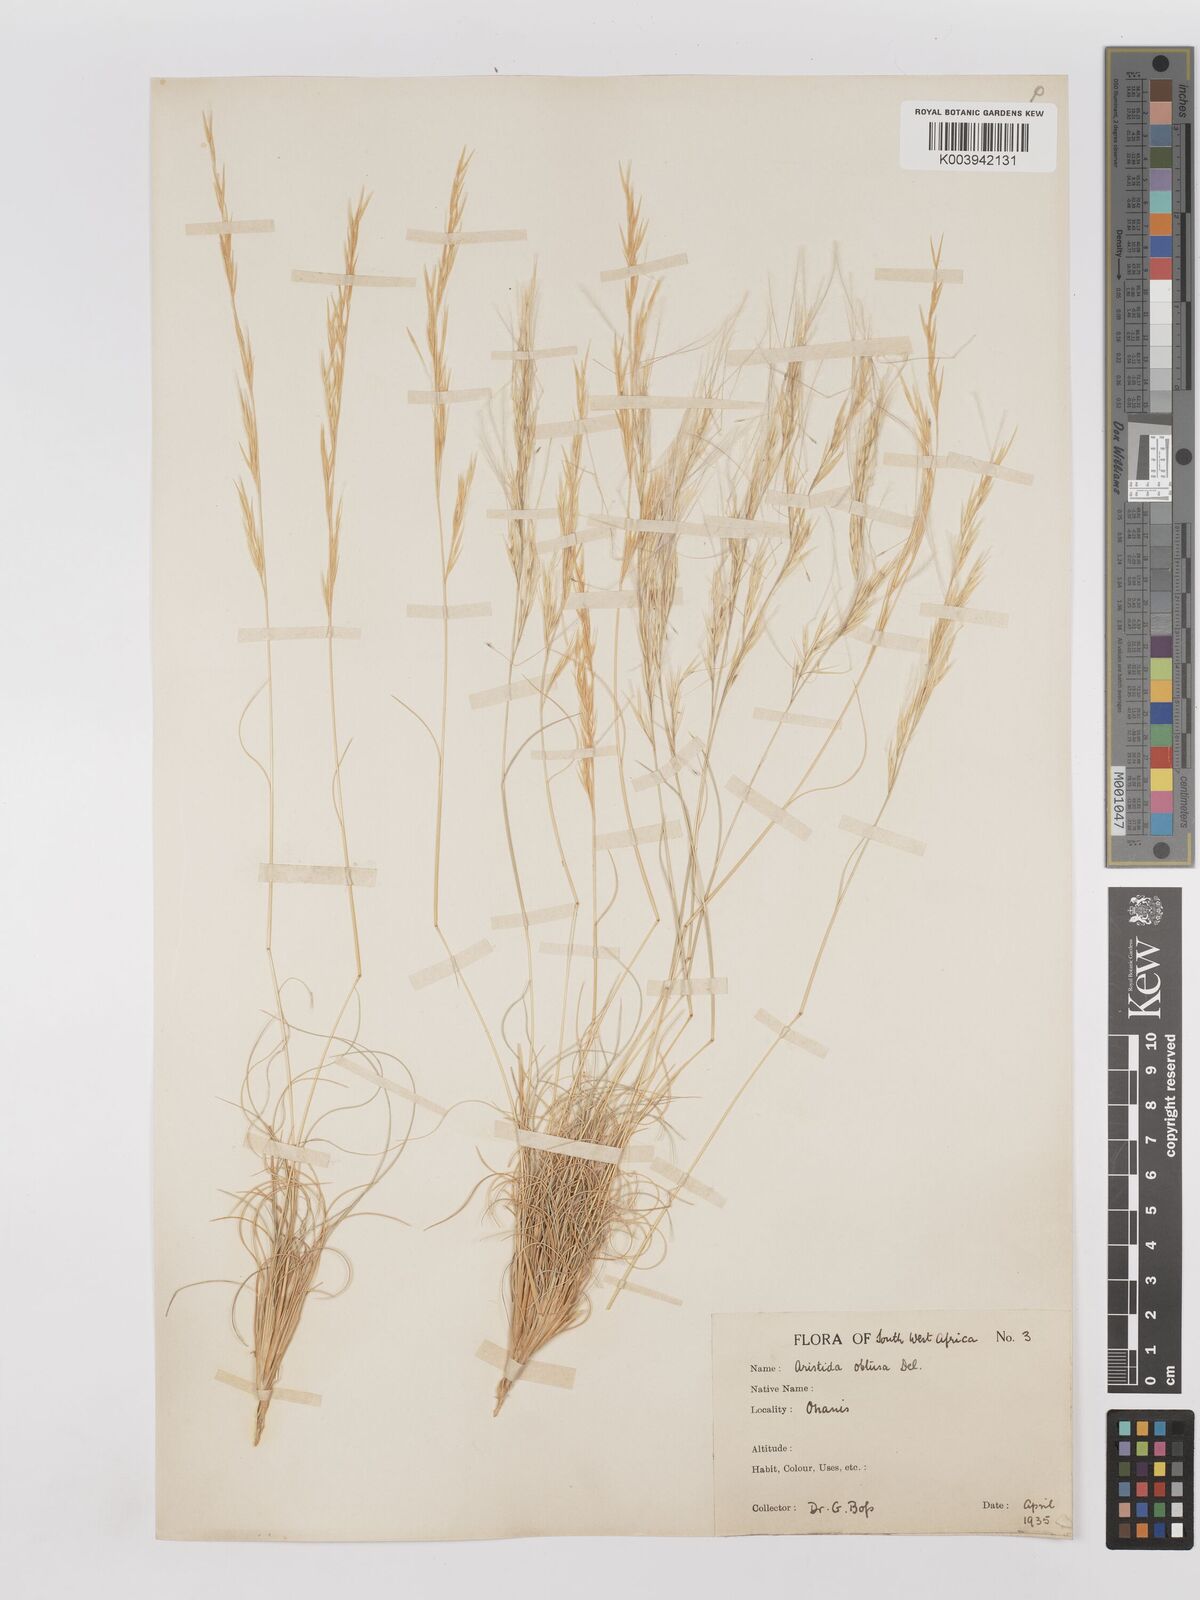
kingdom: Plantae
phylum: Tracheophyta
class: Liliopsida
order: Poales
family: Poaceae
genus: Stipagrostis
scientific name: Stipagrostis obtusa
